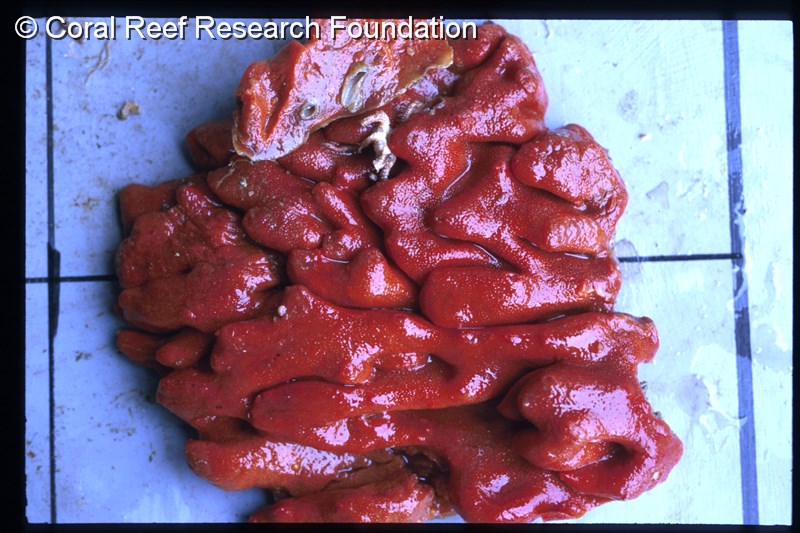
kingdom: Animalia
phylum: Chordata
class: Ascidiacea
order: Aplousobranchia
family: Didemnidae
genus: Atriolum
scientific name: Atriolum
